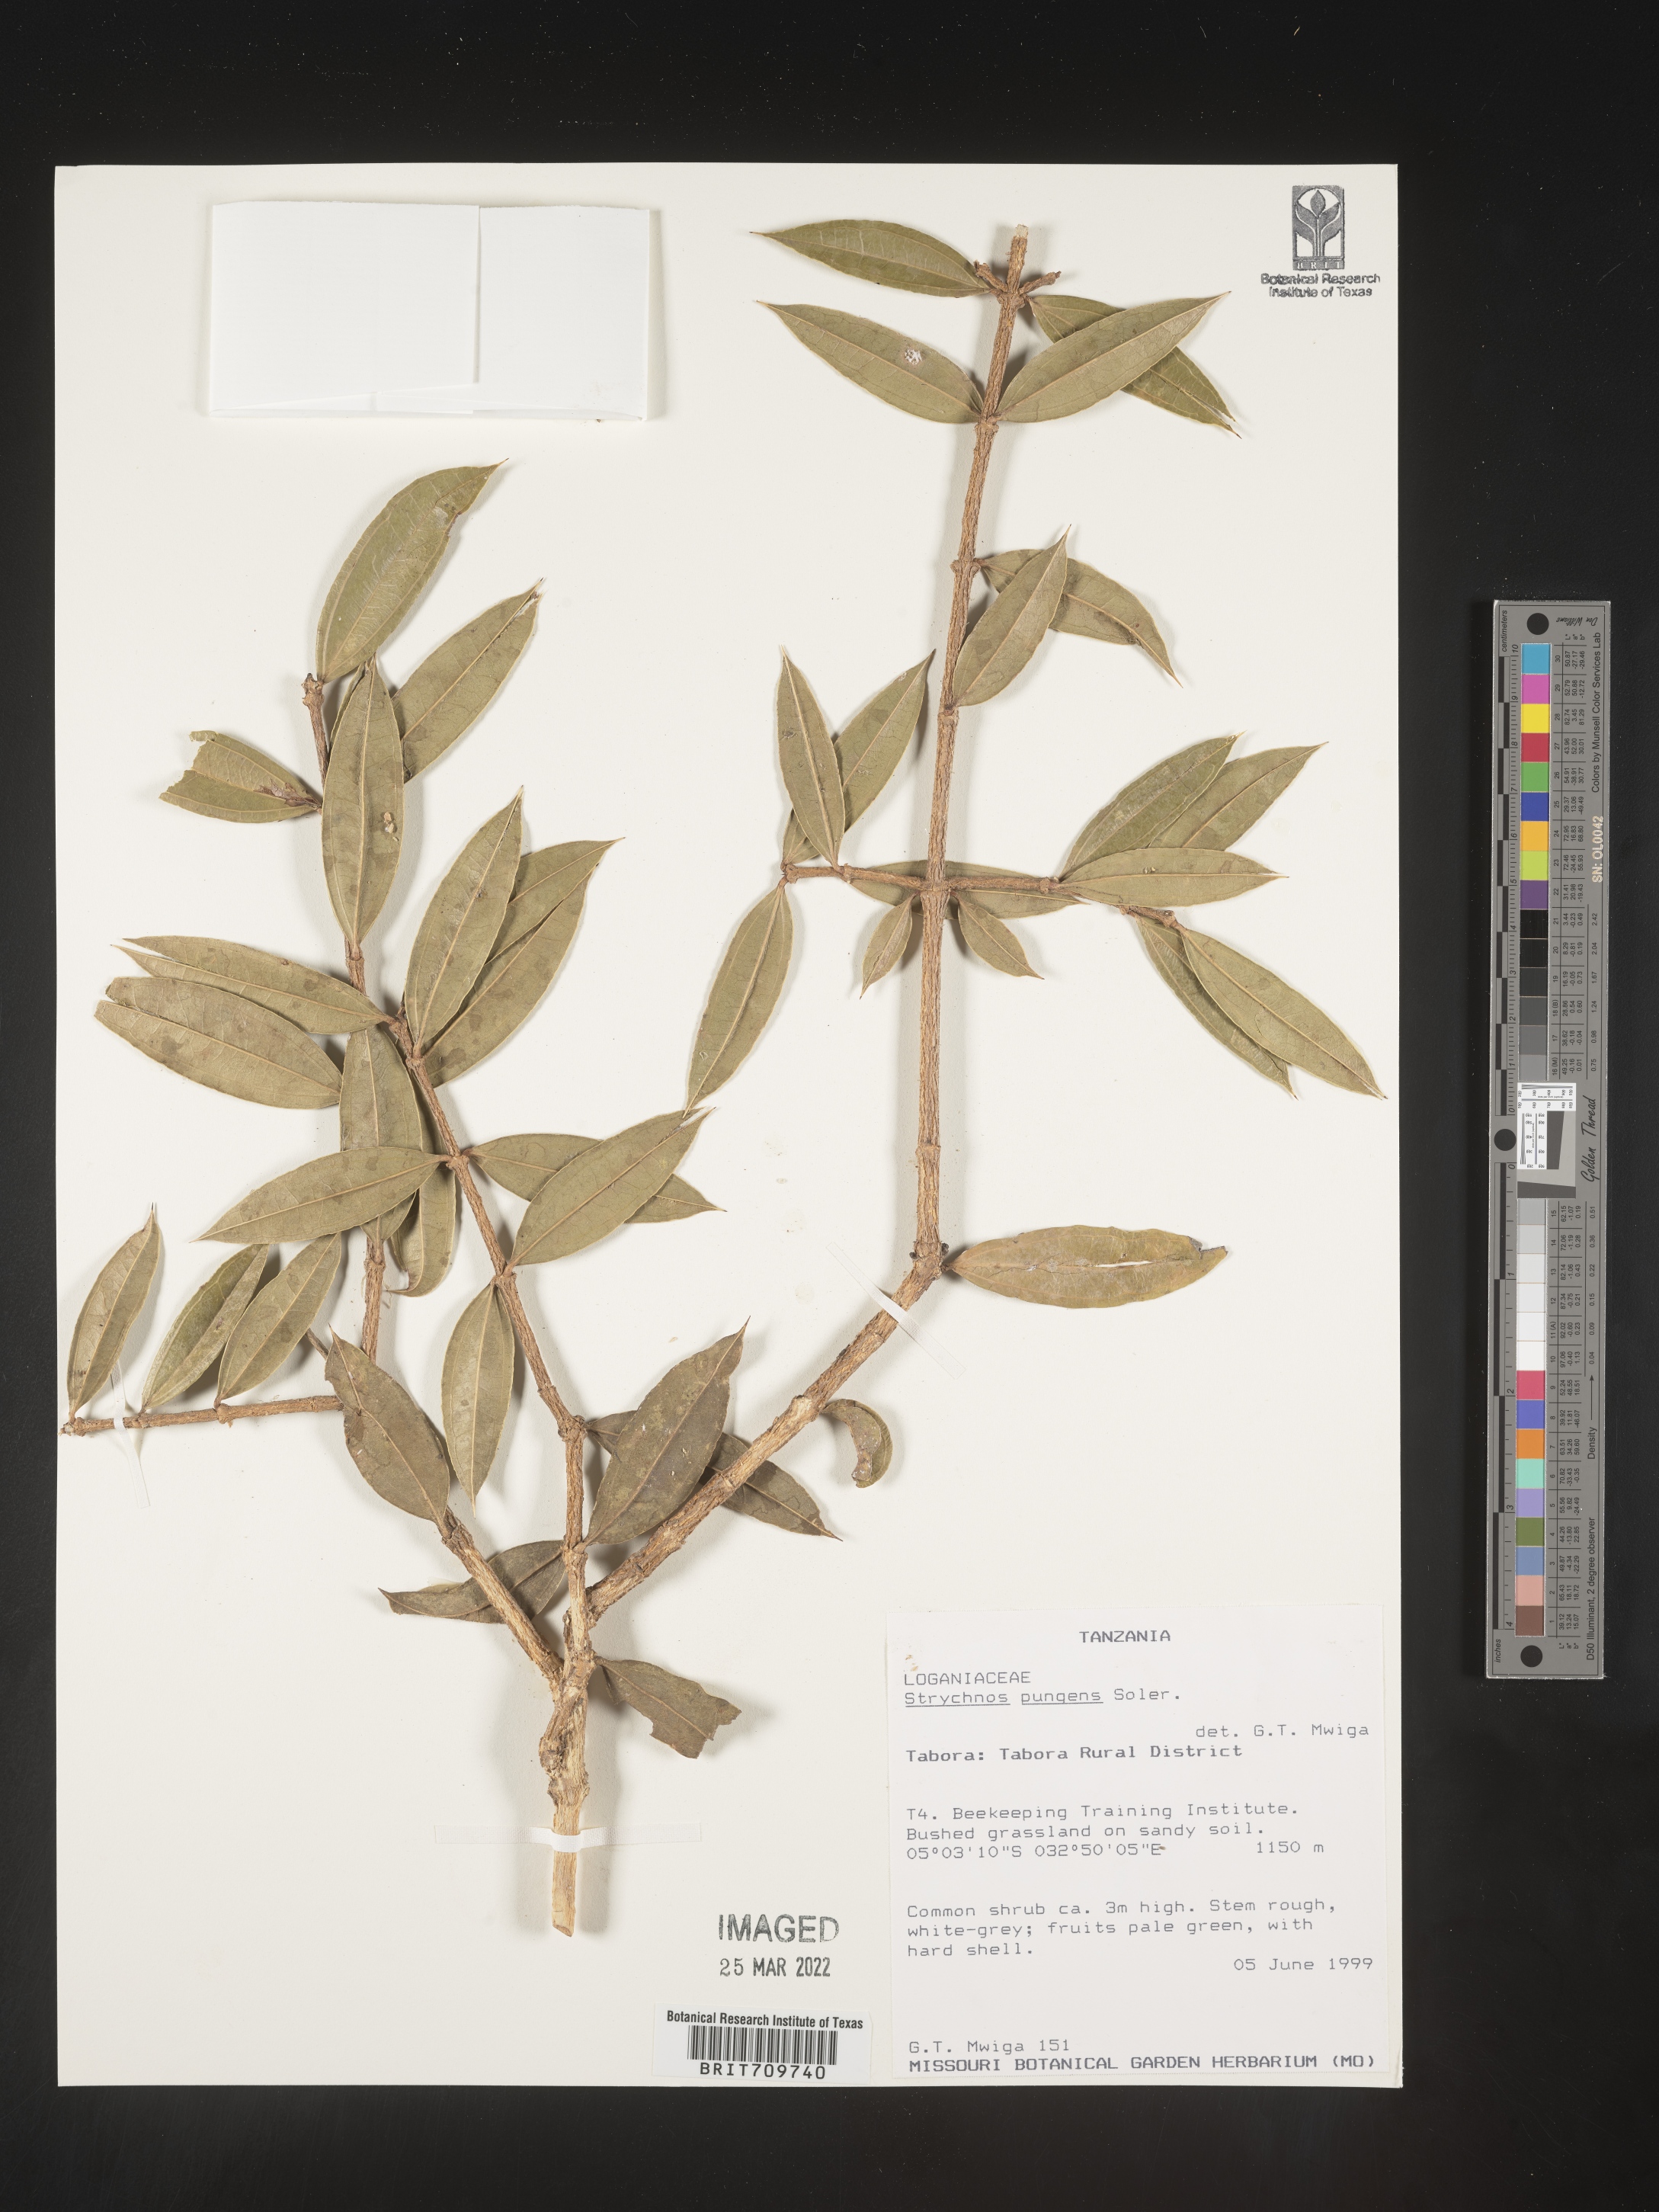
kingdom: Plantae
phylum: Tracheophyta
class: Magnoliopsida
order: Gentianales
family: Loganiaceae
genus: Strychnos
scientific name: Strychnos
